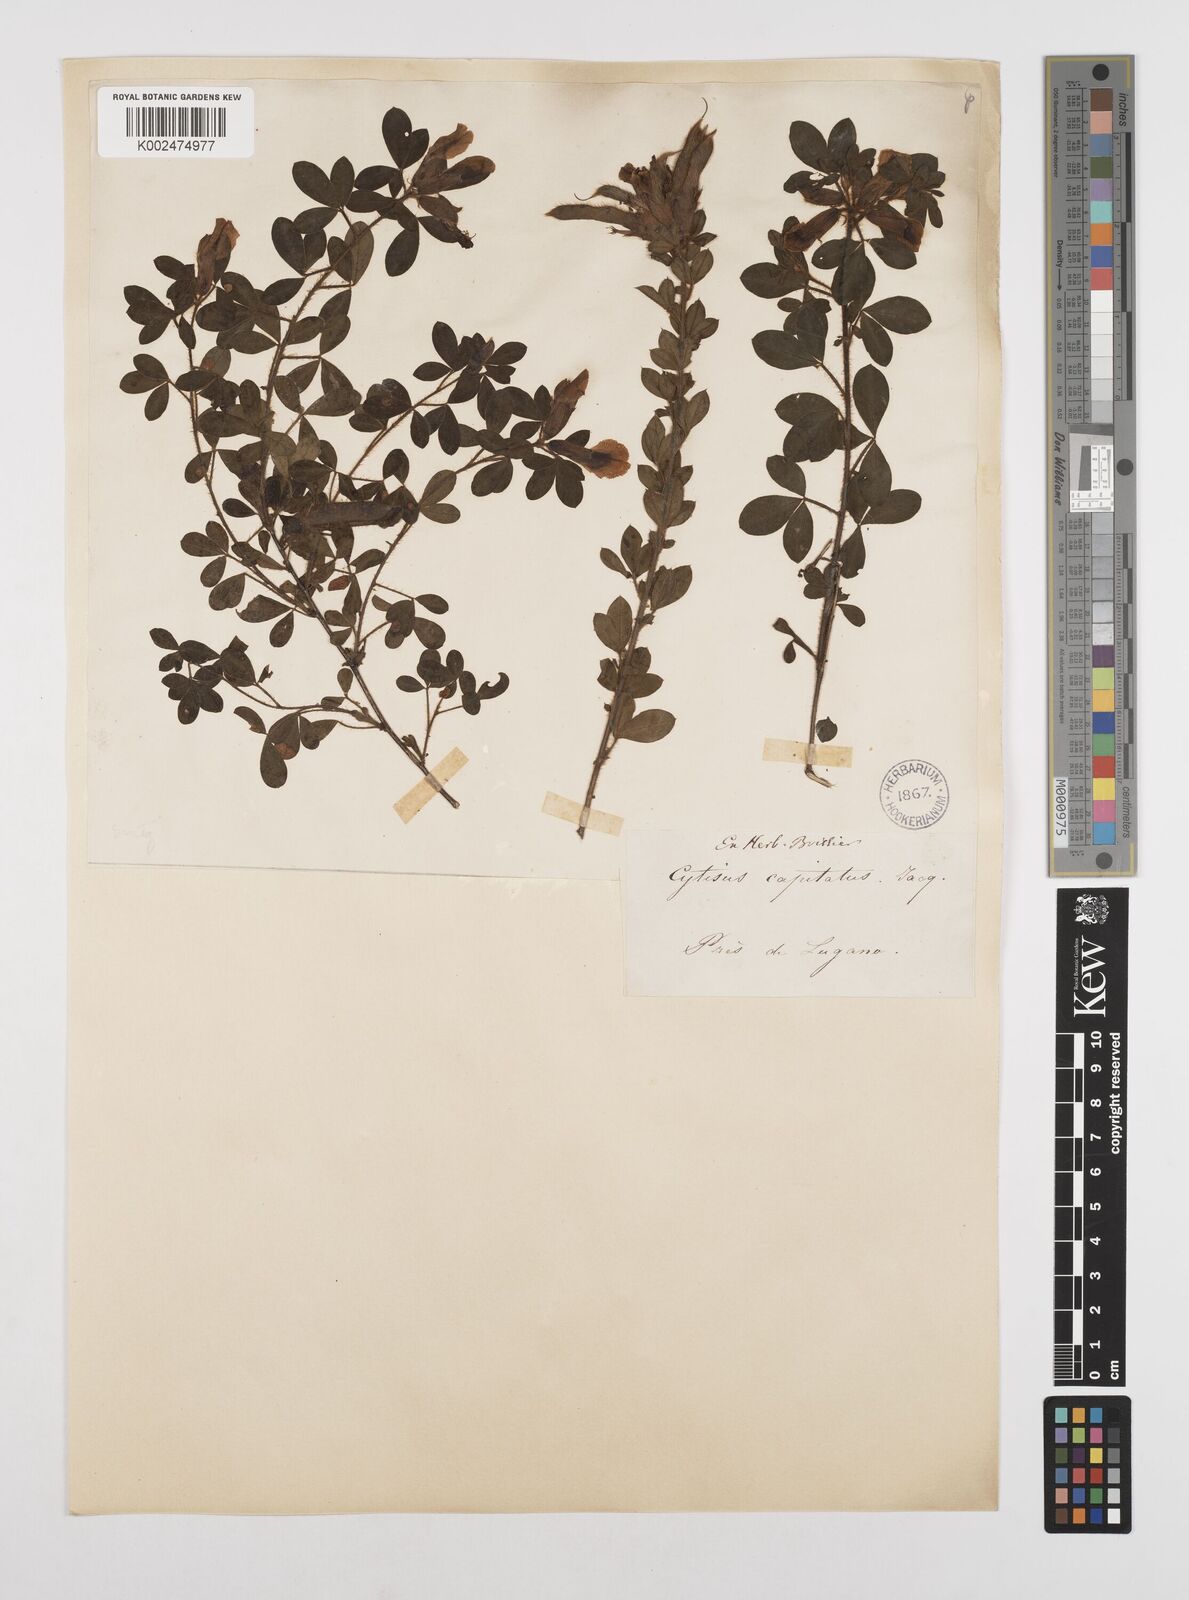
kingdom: Plantae
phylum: Tracheophyta
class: Magnoliopsida
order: Fabales
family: Fabaceae
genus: Chamaecytisus
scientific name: Chamaecytisus hirsutus
